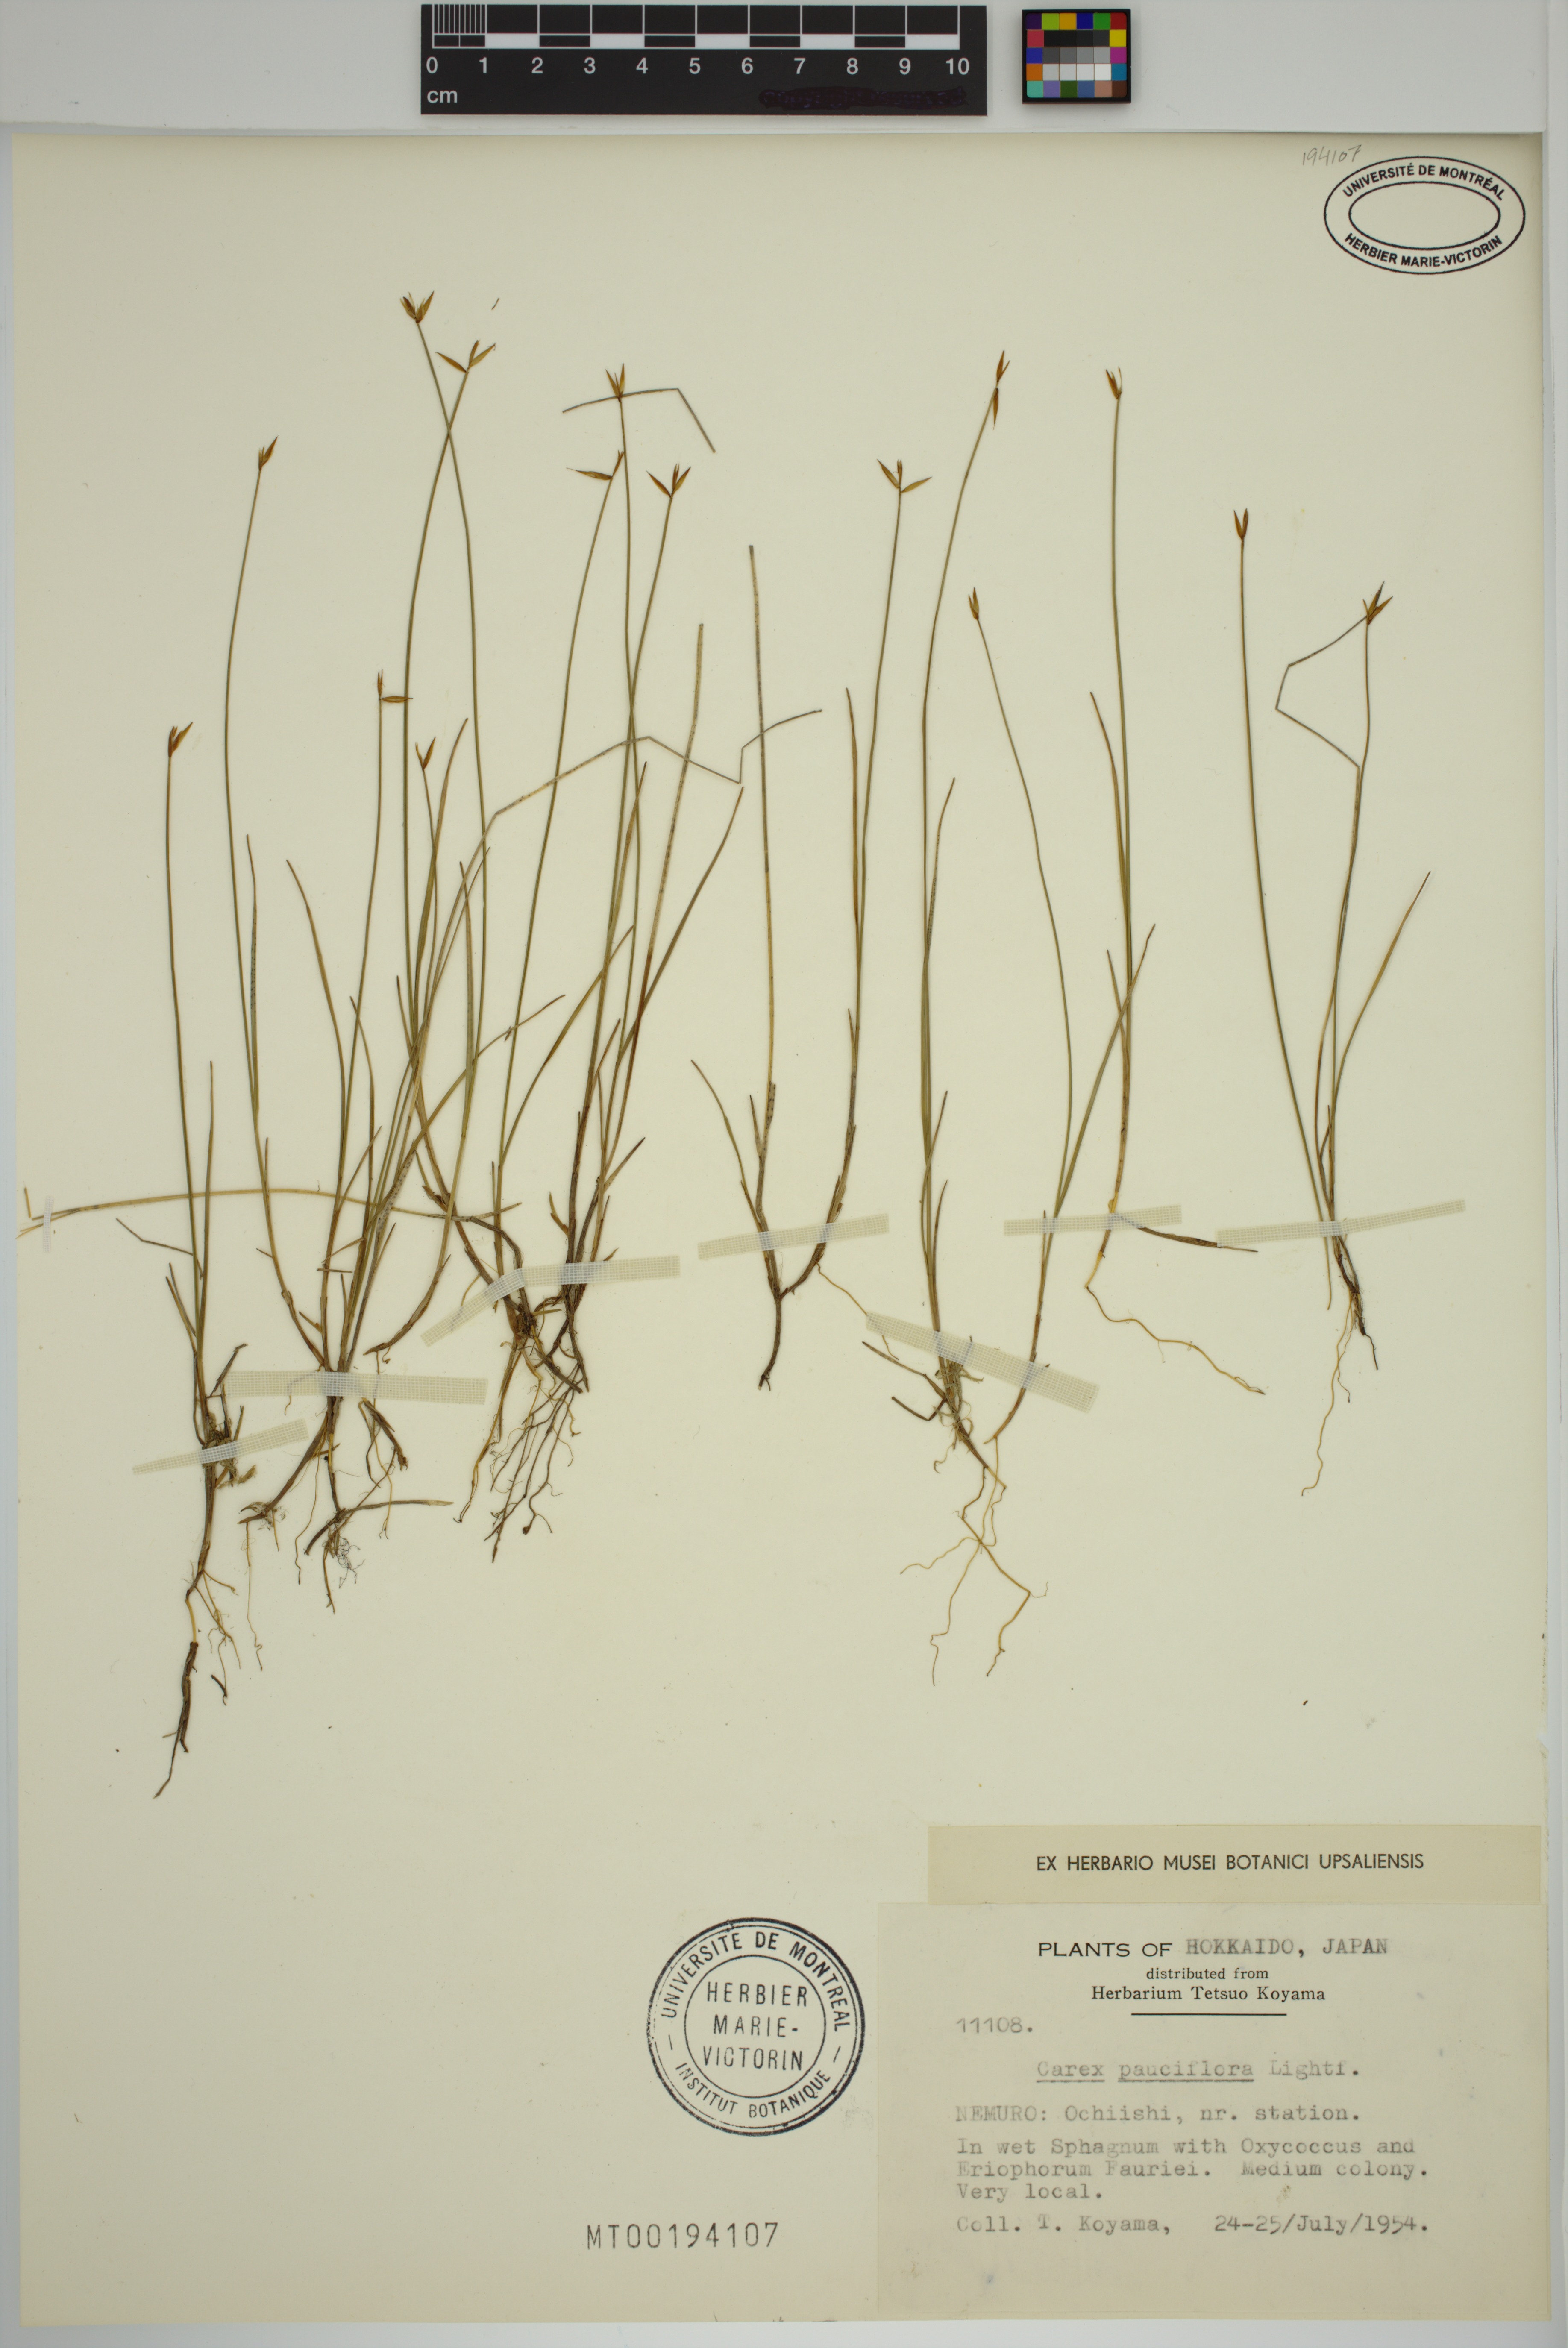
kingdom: Plantae
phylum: Tracheophyta
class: Liliopsida
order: Poales
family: Cyperaceae
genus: Carex
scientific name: Carex pauciflora
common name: Few-flowered sedge
